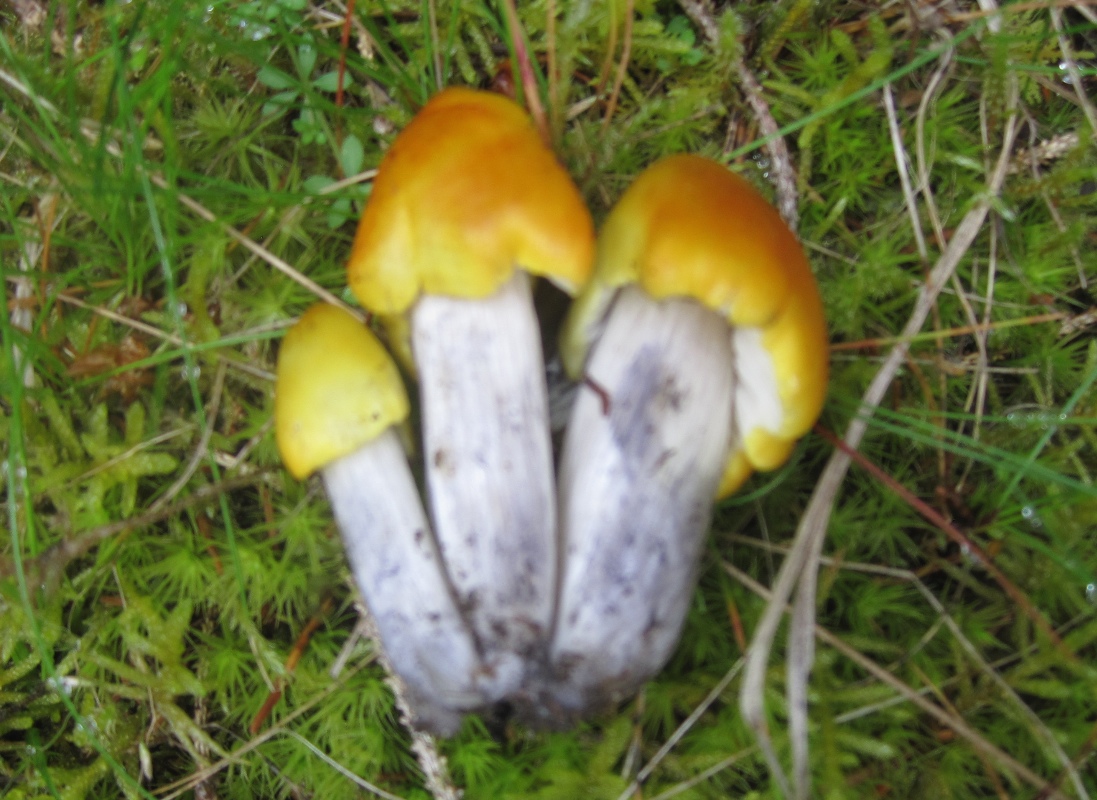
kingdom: Fungi
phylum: Basidiomycota
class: Agaricomycetes
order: Agaricales
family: Hygrophoraceae
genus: Hygrocybe
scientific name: Hygrocybe conica
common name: kegle-vokshat
